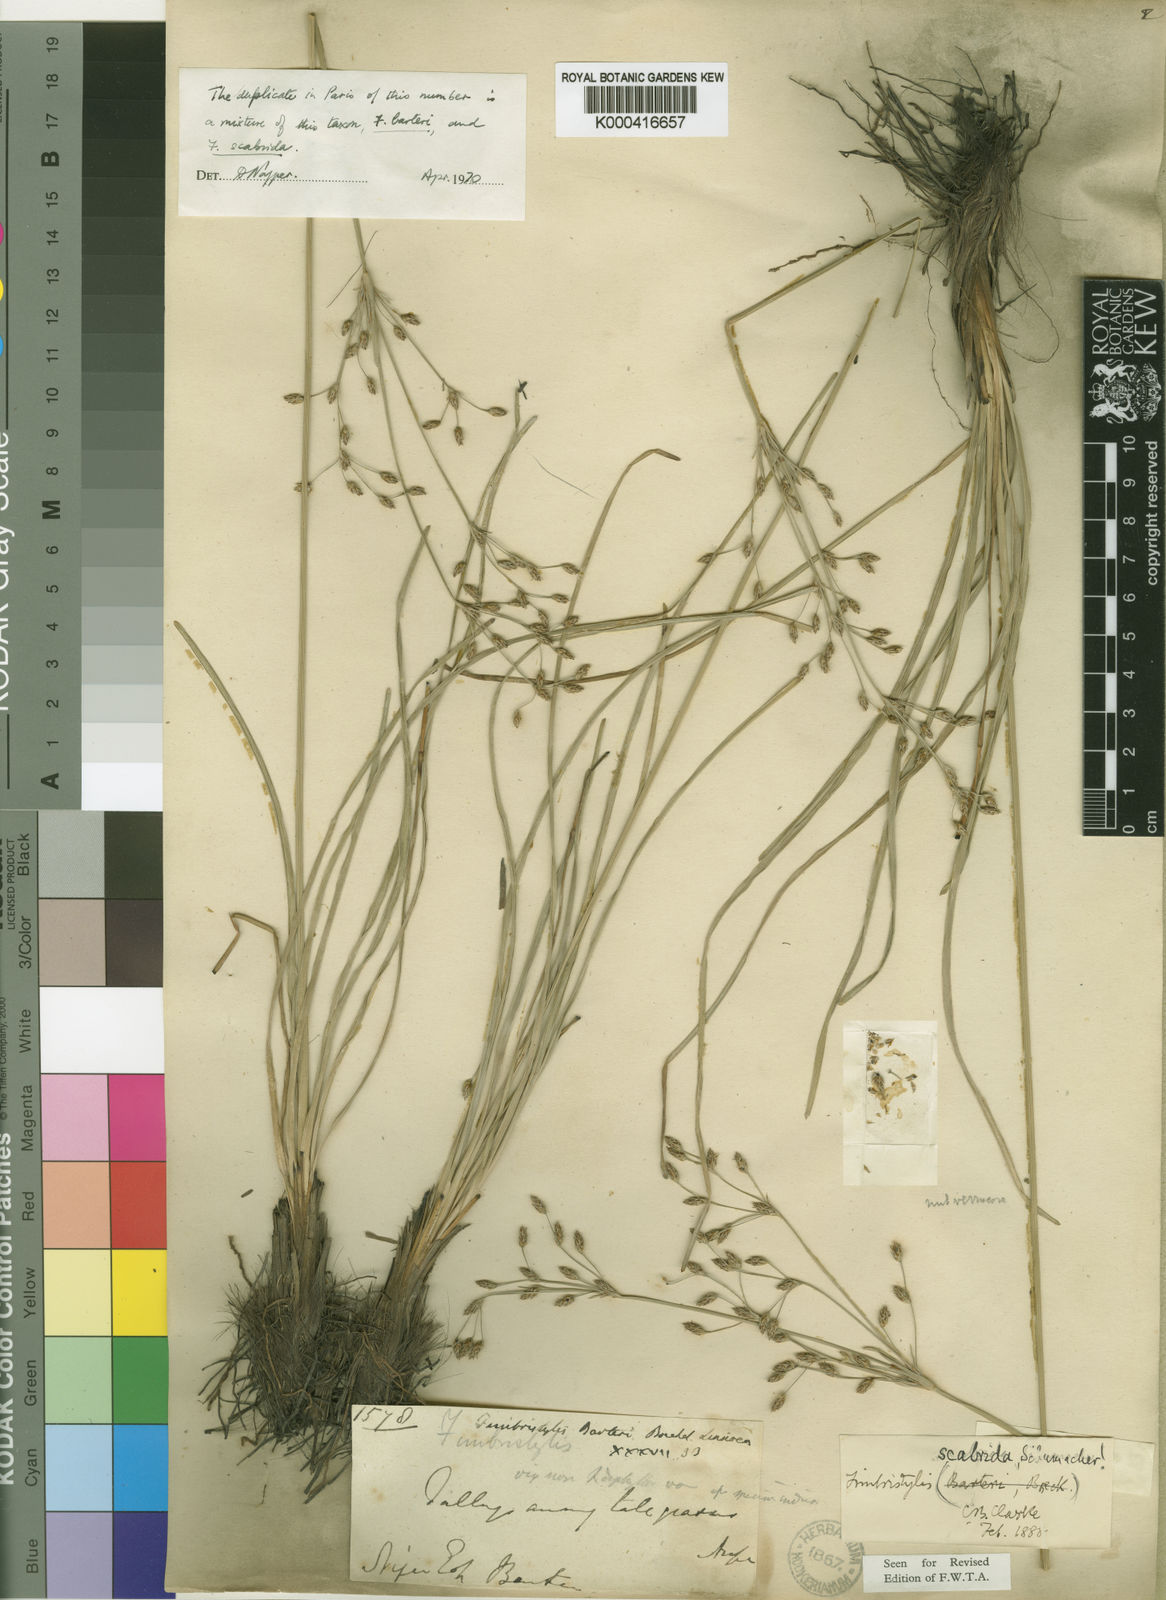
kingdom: Plantae
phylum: Tracheophyta
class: Liliopsida
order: Poales
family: Cyperaceae
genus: Fimbristylis
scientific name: Fimbristylis barteri
